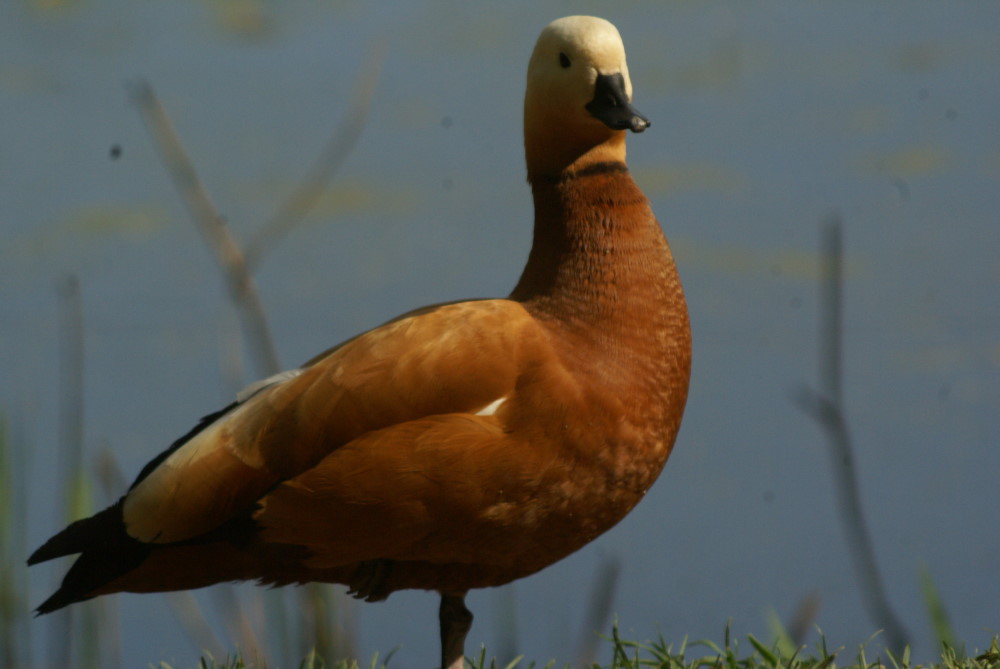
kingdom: Animalia
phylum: Chordata
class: Aves
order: Anseriformes
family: Anatidae
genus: Tadorna
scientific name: Tadorna ferruginea
